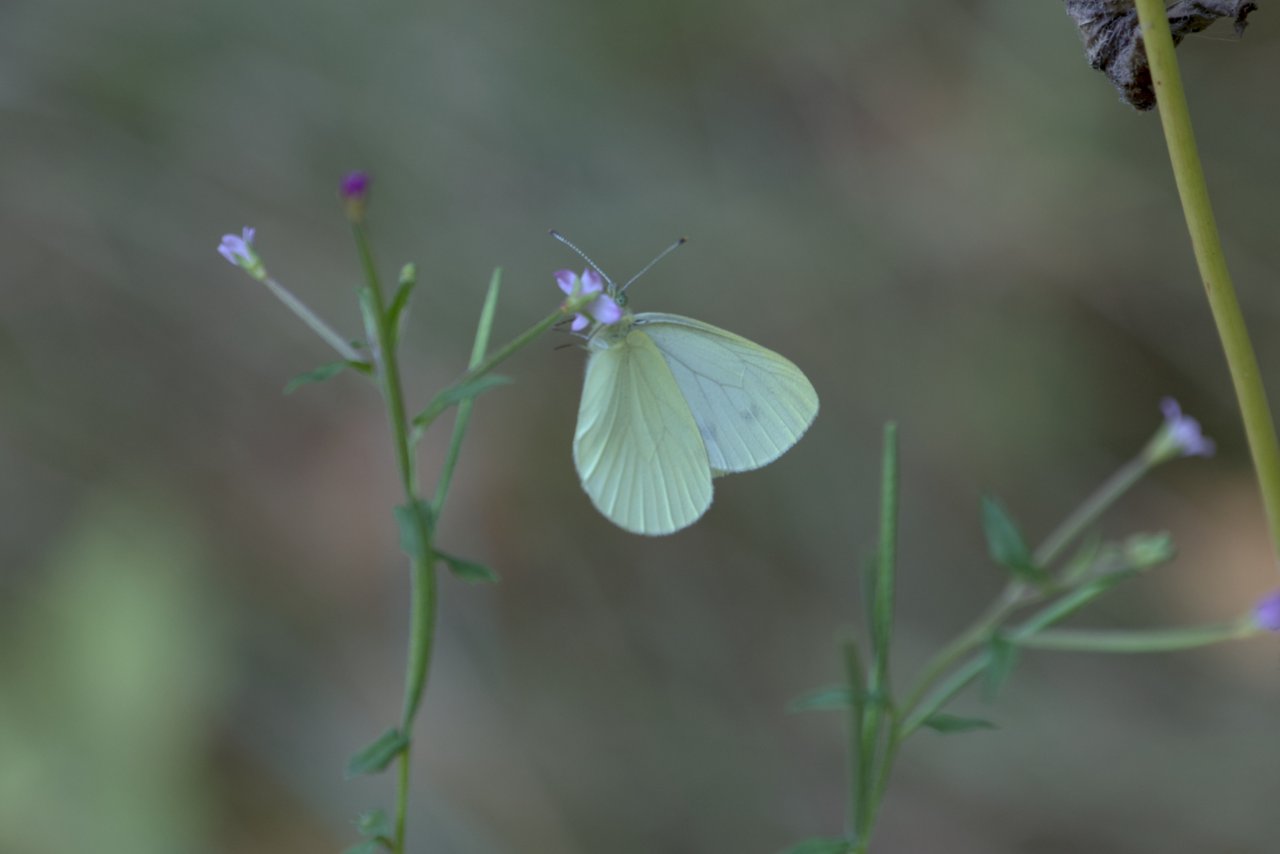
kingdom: Animalia
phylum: Arthropoda
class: Insecta
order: Lepidoptera
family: Pieridae
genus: Pieris
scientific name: Pieris marginalis
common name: Margined White
